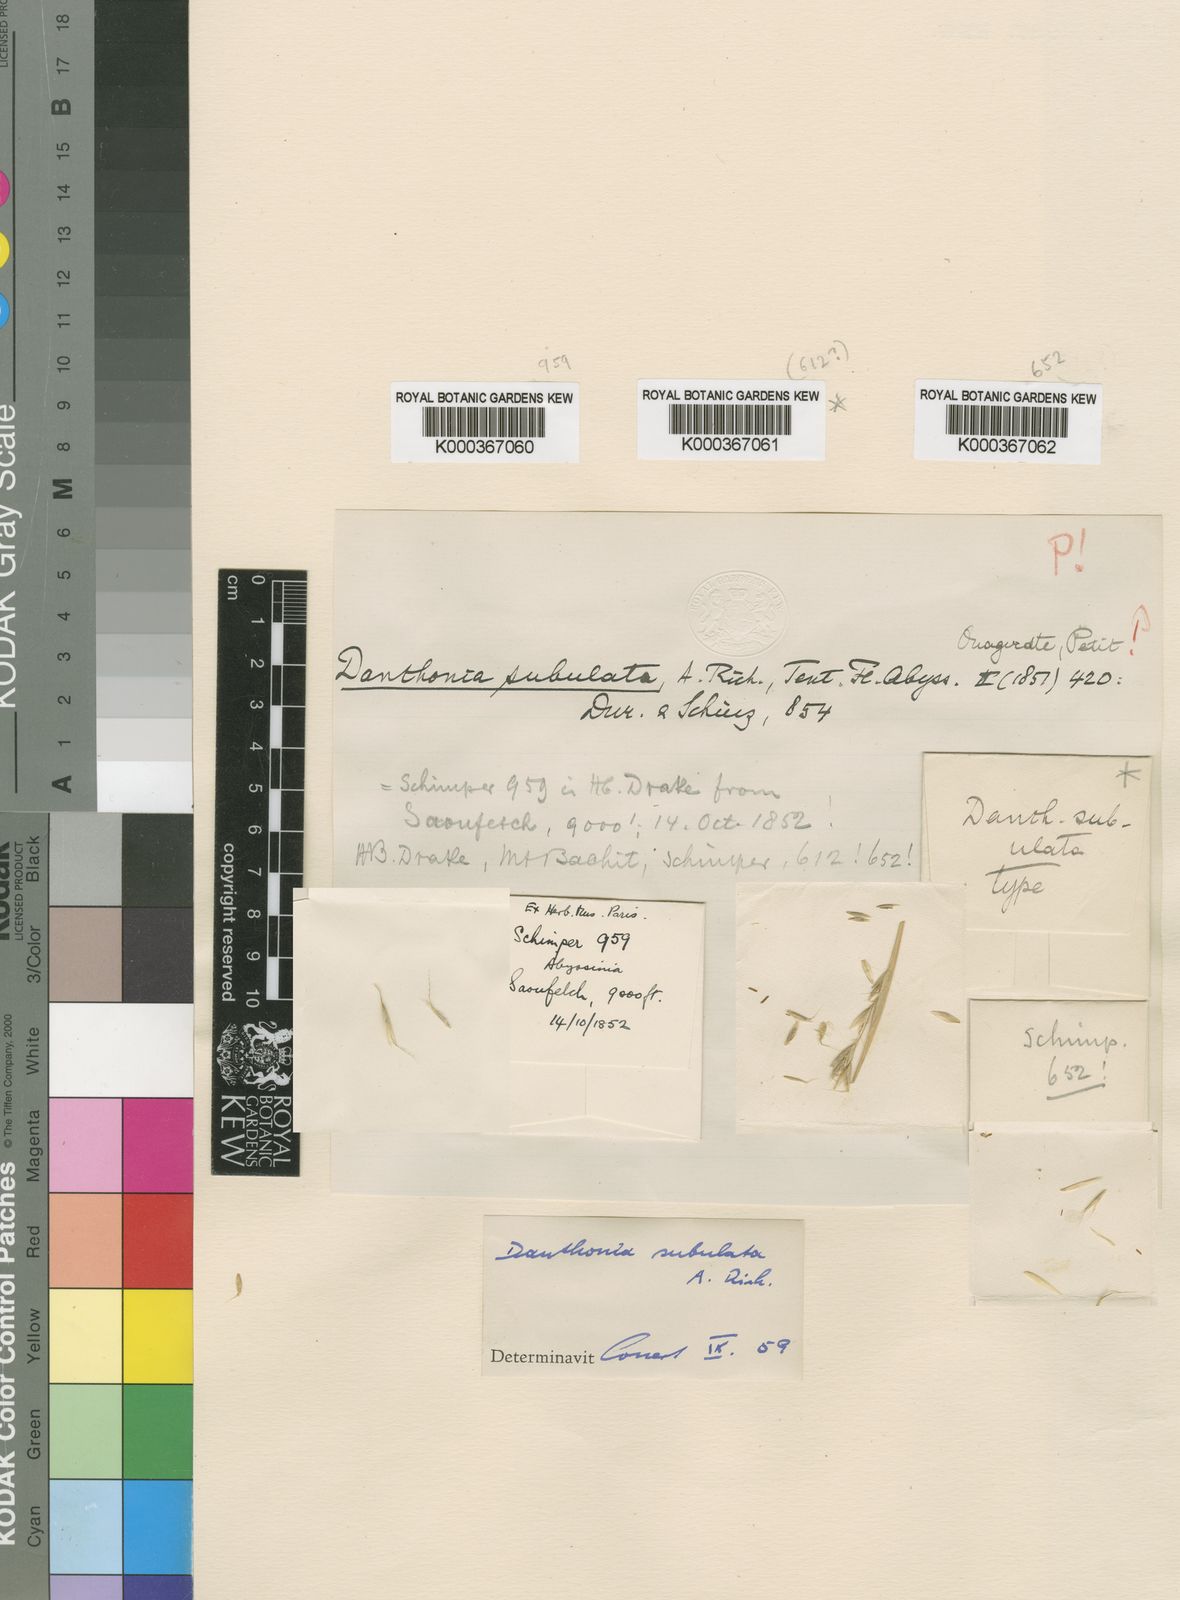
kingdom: Plantae
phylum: Tracheophyta
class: Liliopsida
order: Poales
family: Poaceae
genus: Tenaxia
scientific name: Tenaxia subulata
